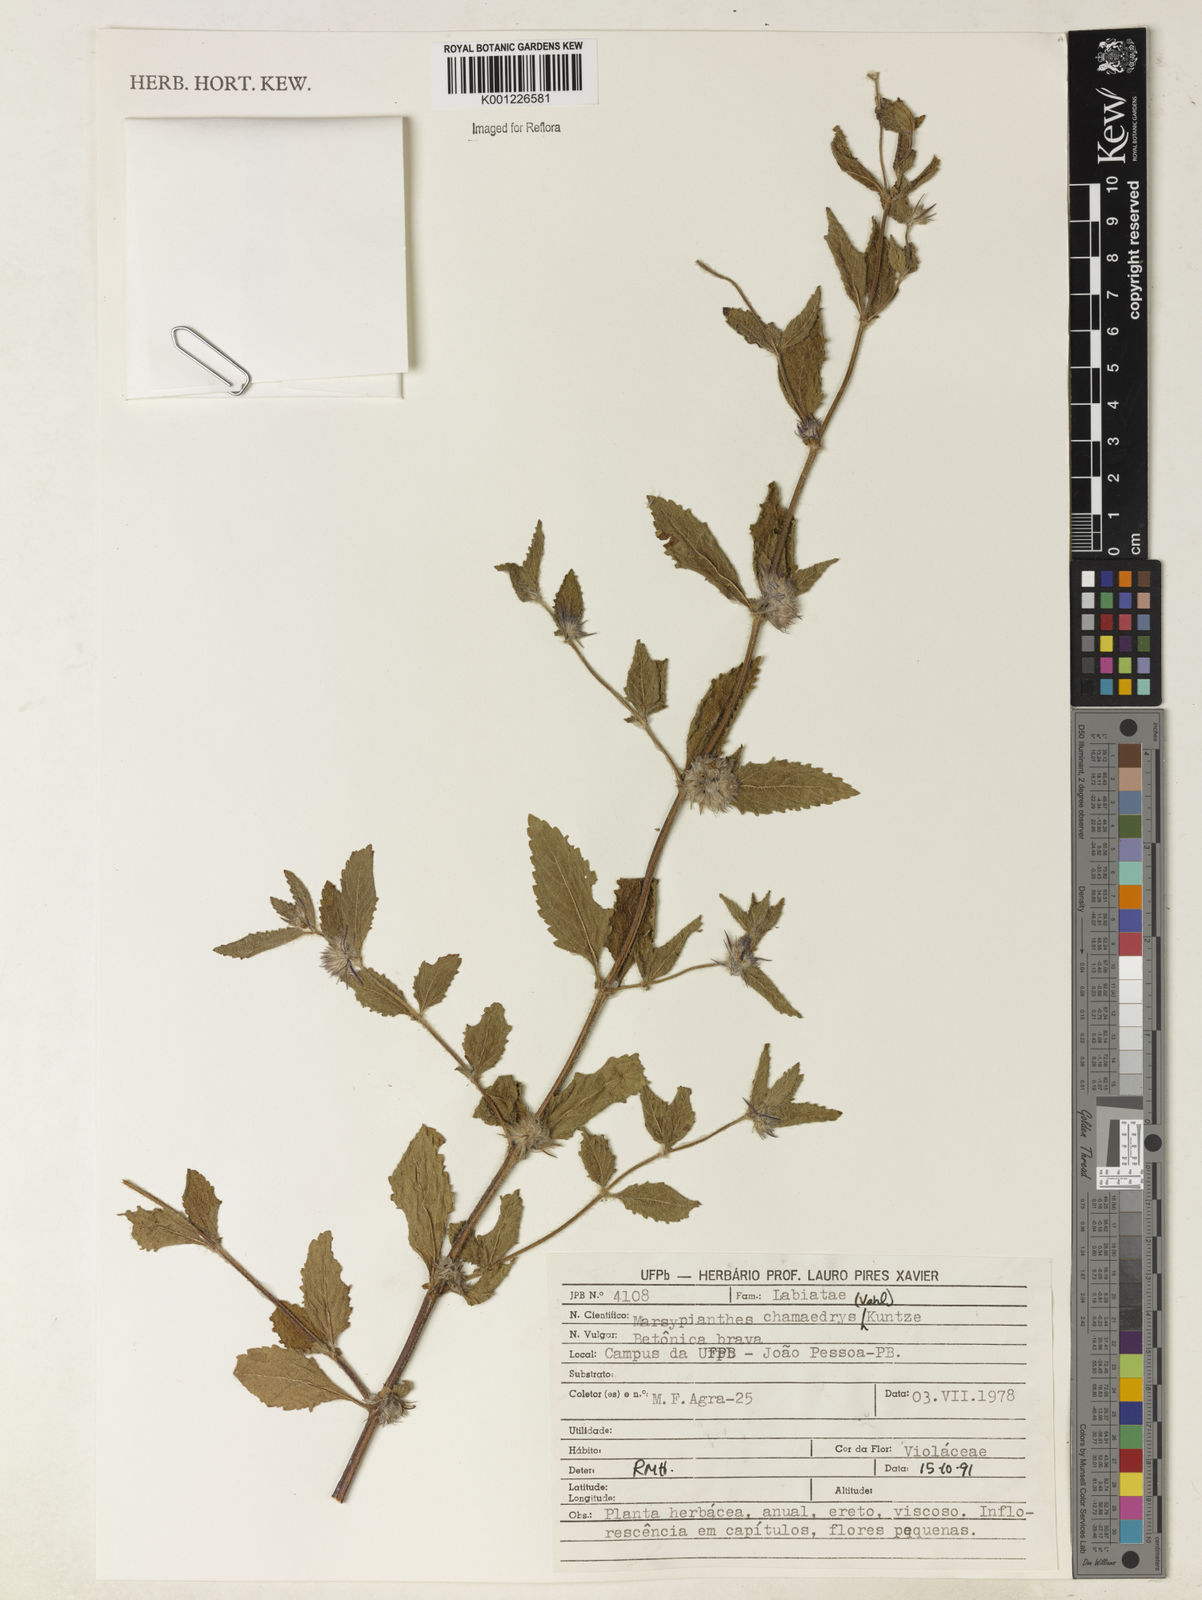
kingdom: Plantae
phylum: Tracheophyta
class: Magnoliopsida
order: Lamiales
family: Lamiaceae
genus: Marsypianthes
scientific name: Marsypianthes chamaedrys
